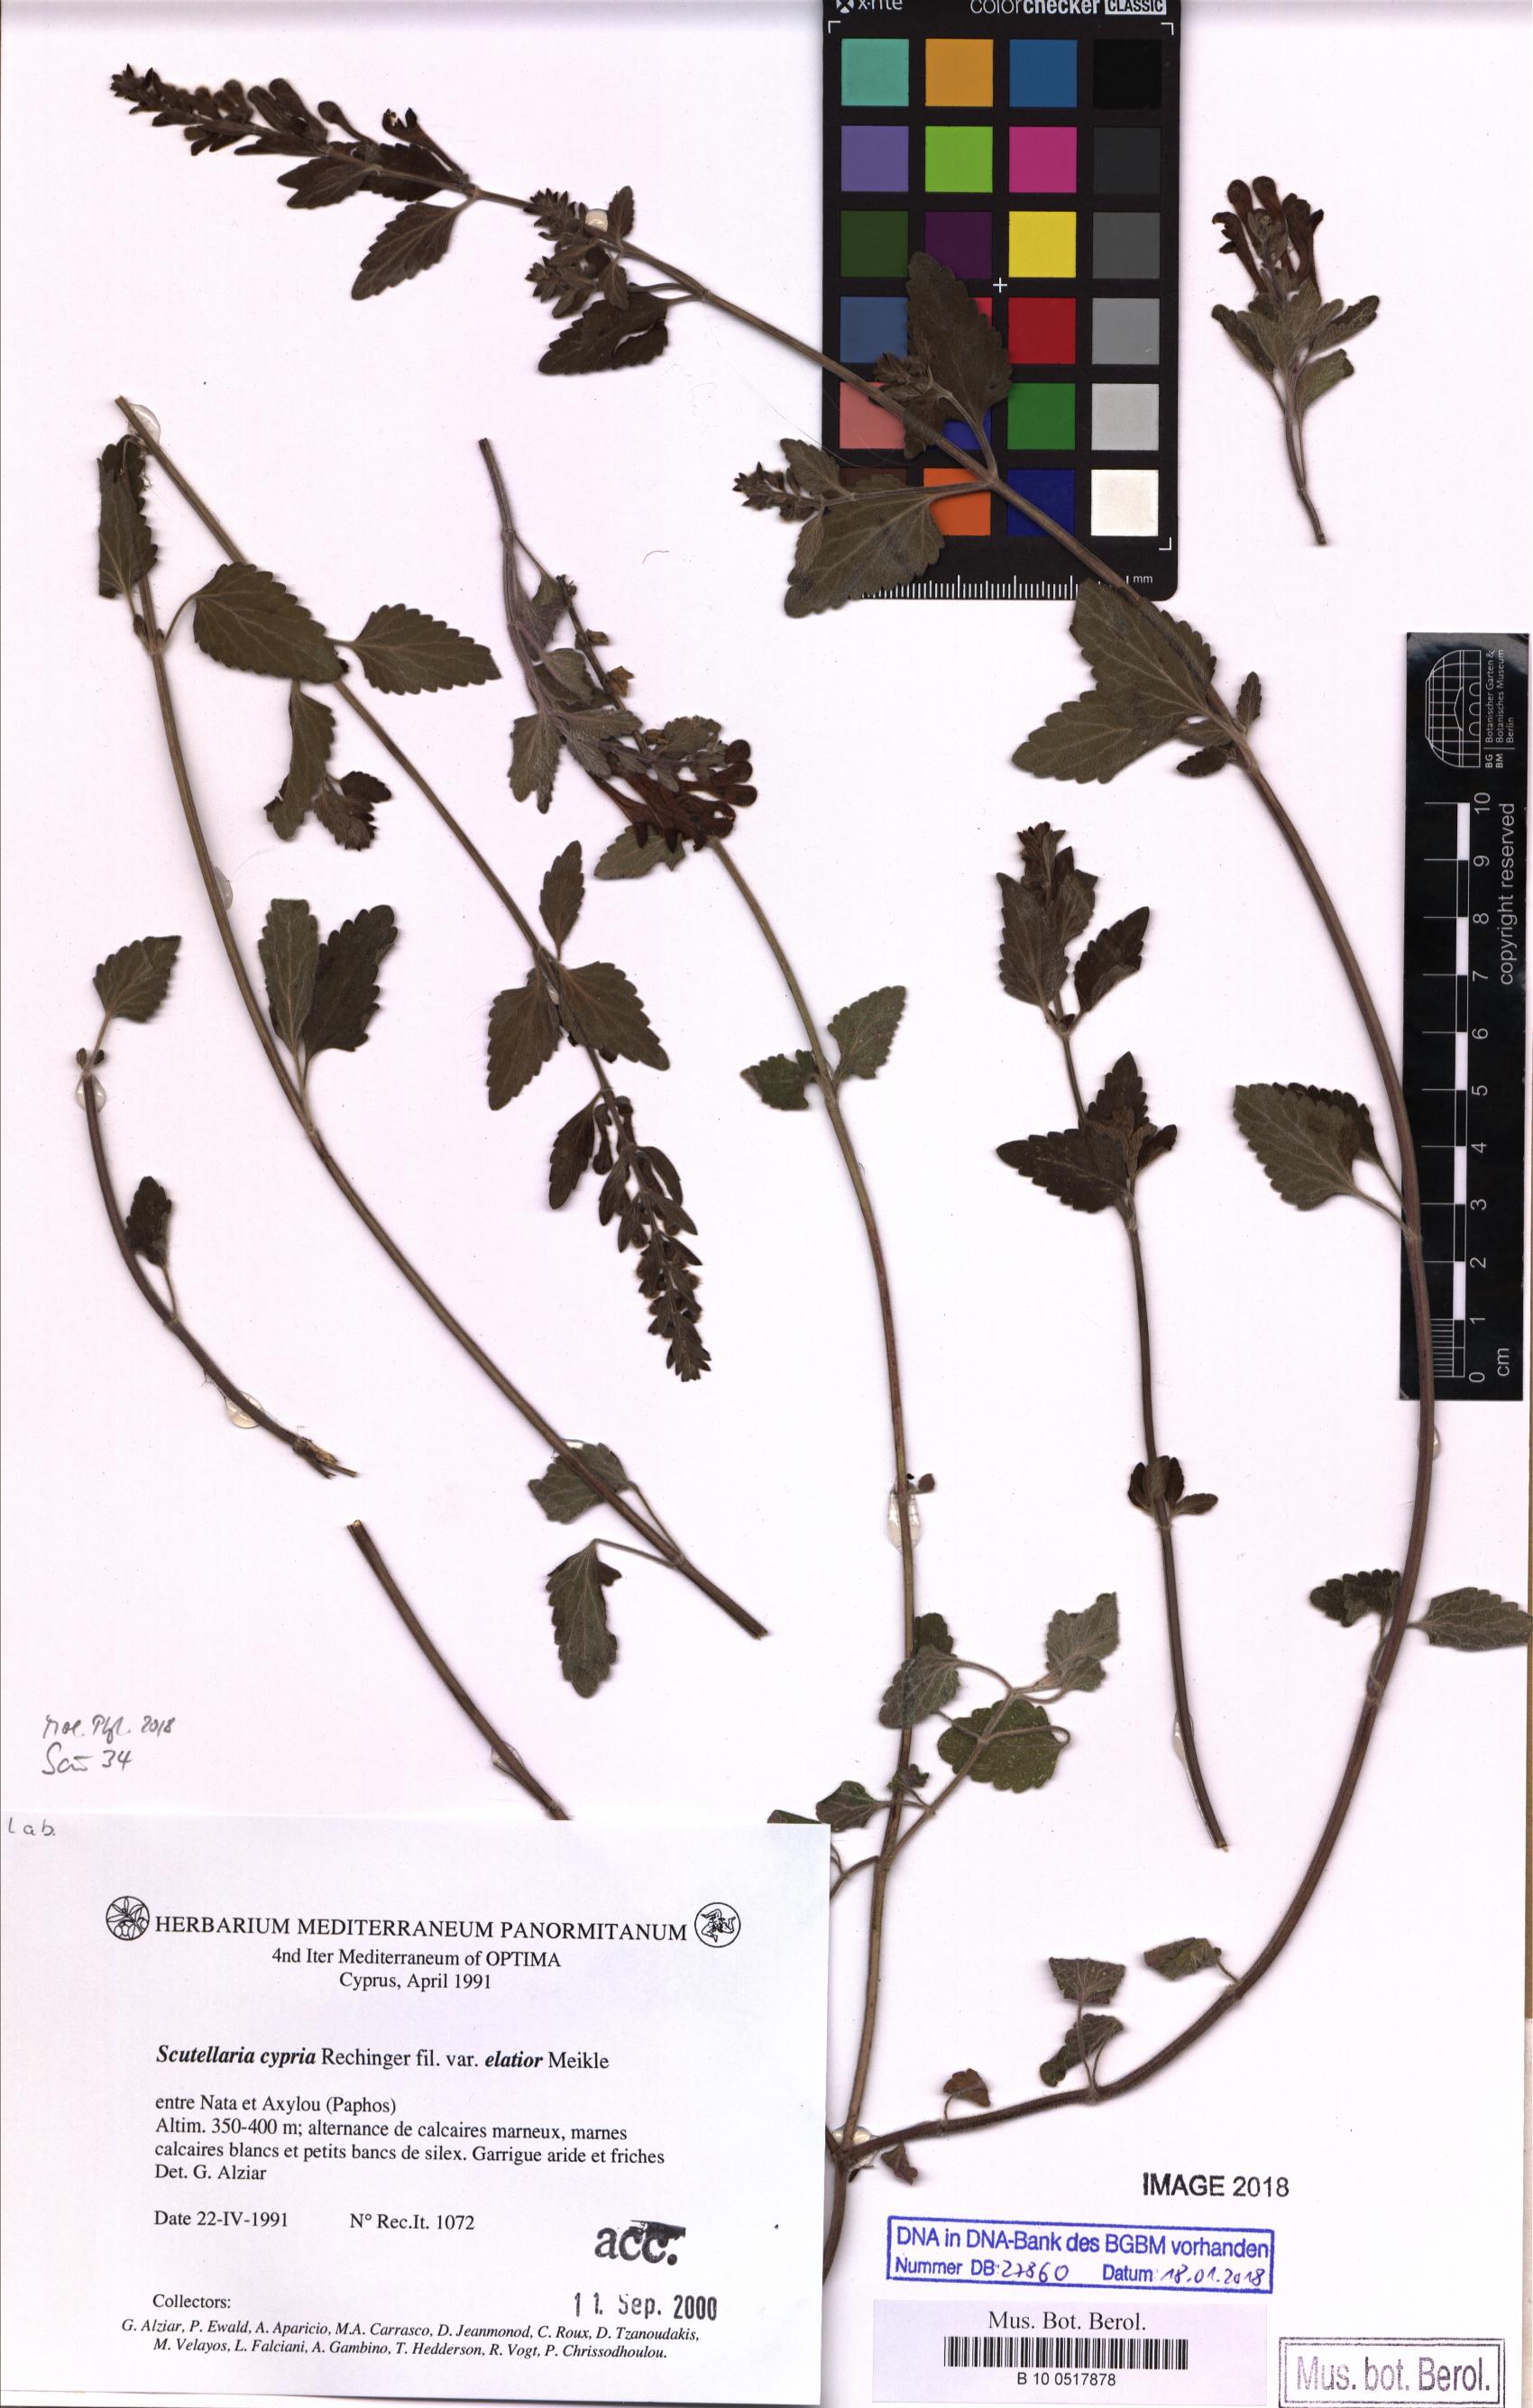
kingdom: Plantae
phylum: Tracheophyta
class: Magnoliopsida
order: Lamiales
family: Lamiaceae
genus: Scutellaria
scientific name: Scutellaria cypria
